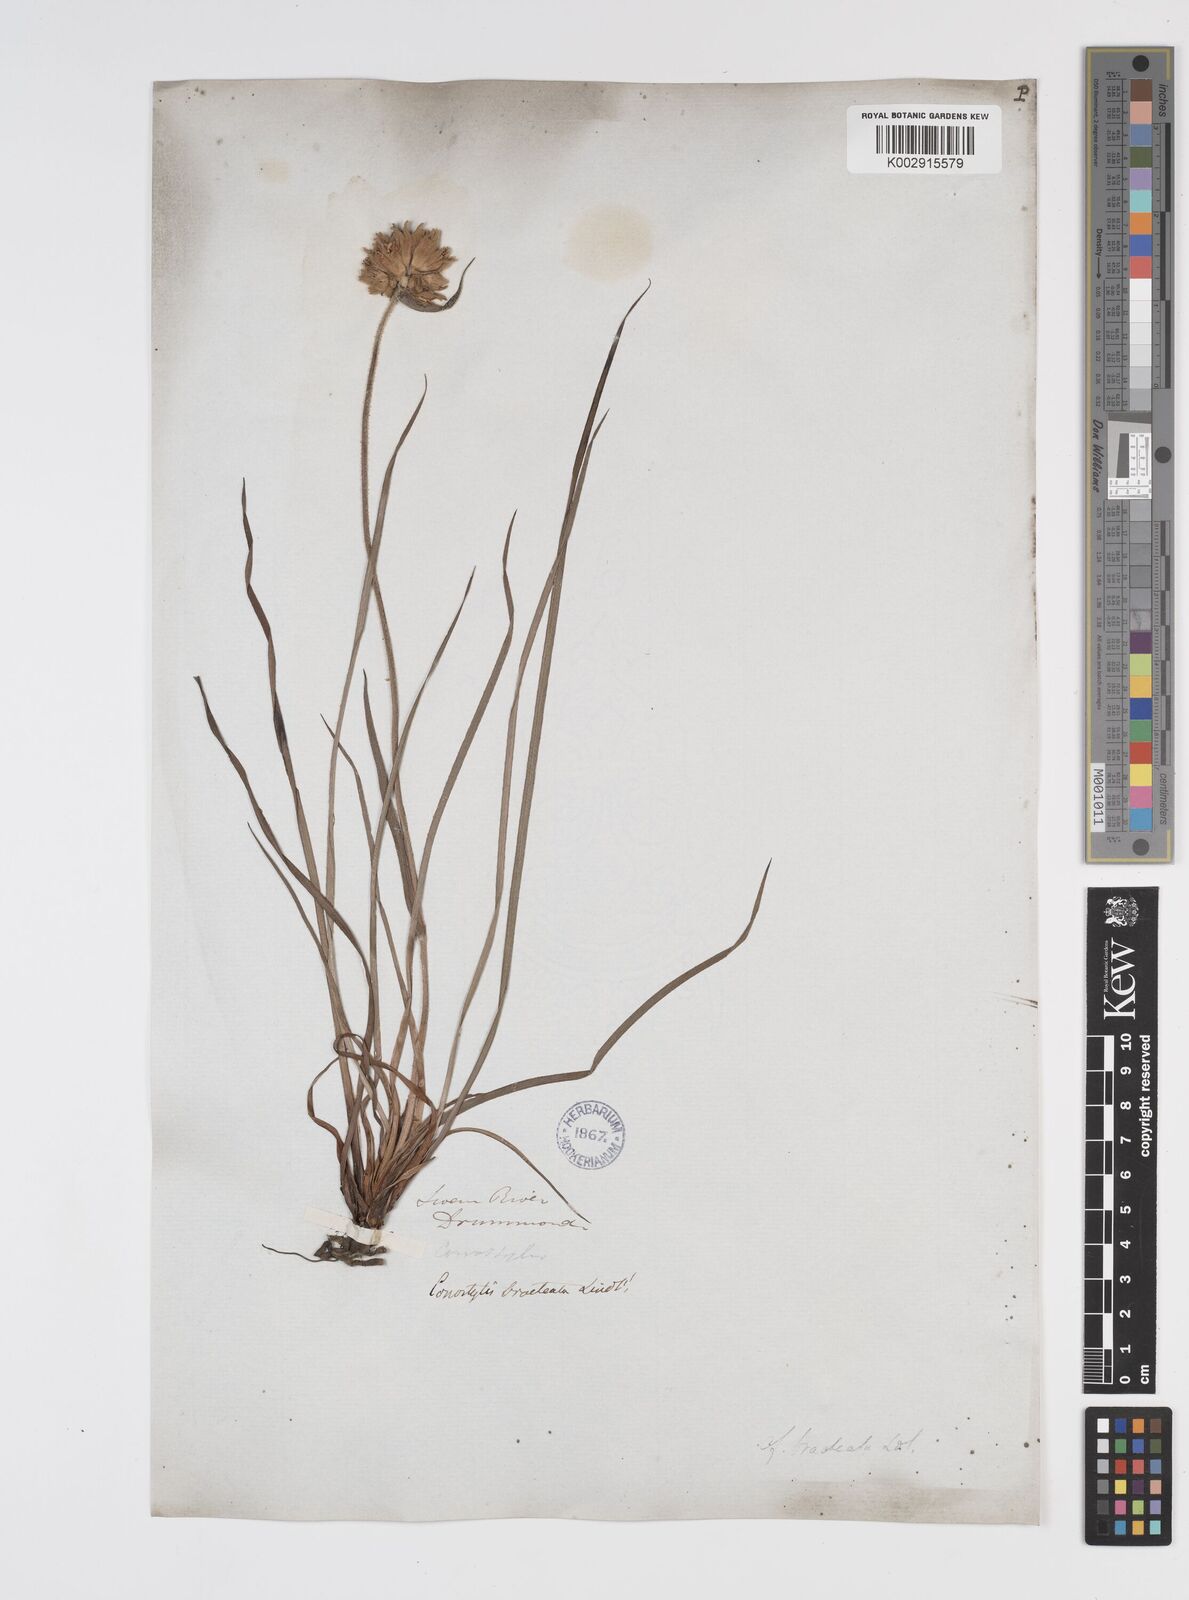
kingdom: Plantae
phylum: Tracheophyta
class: Liliopsida
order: Commelinales
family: Haemodoraceae
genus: Conostylis
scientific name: Conostylis bracteata
